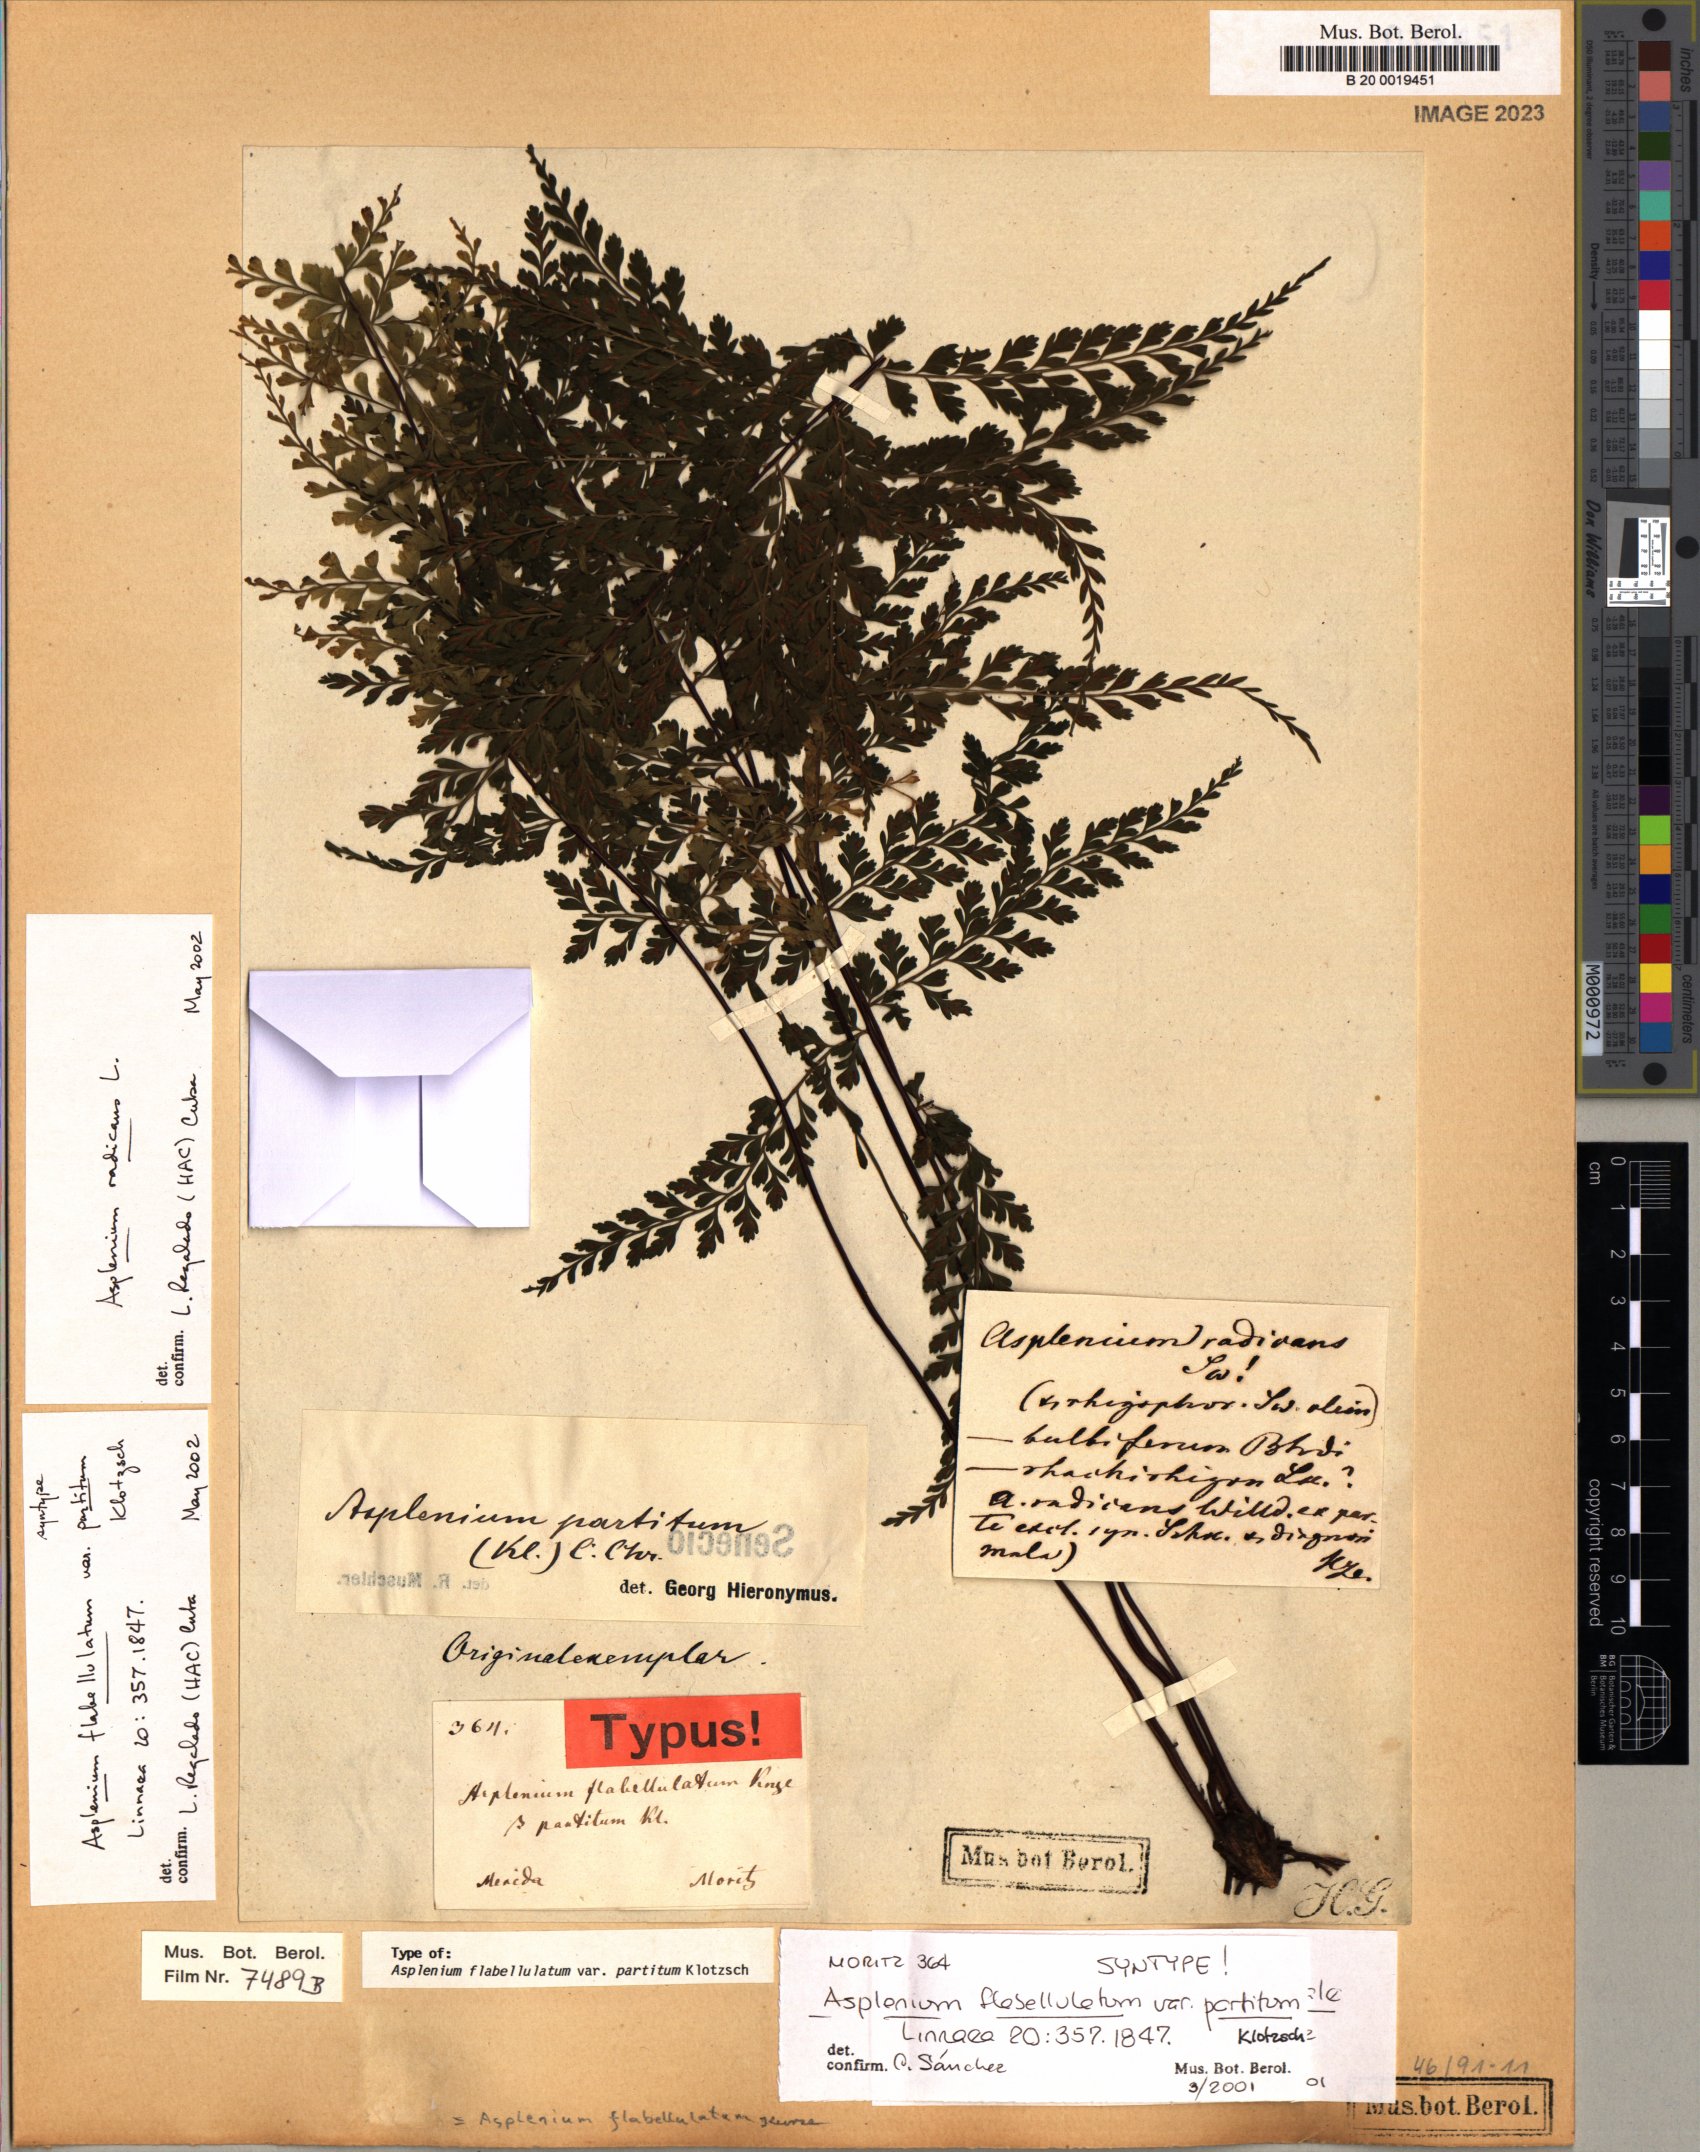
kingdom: Plantae
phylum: Tracheophyta
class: Polypodiopsida
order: Polypodiales
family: Aspleniaceae
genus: Asplenium
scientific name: Asplenium flabellulatum
